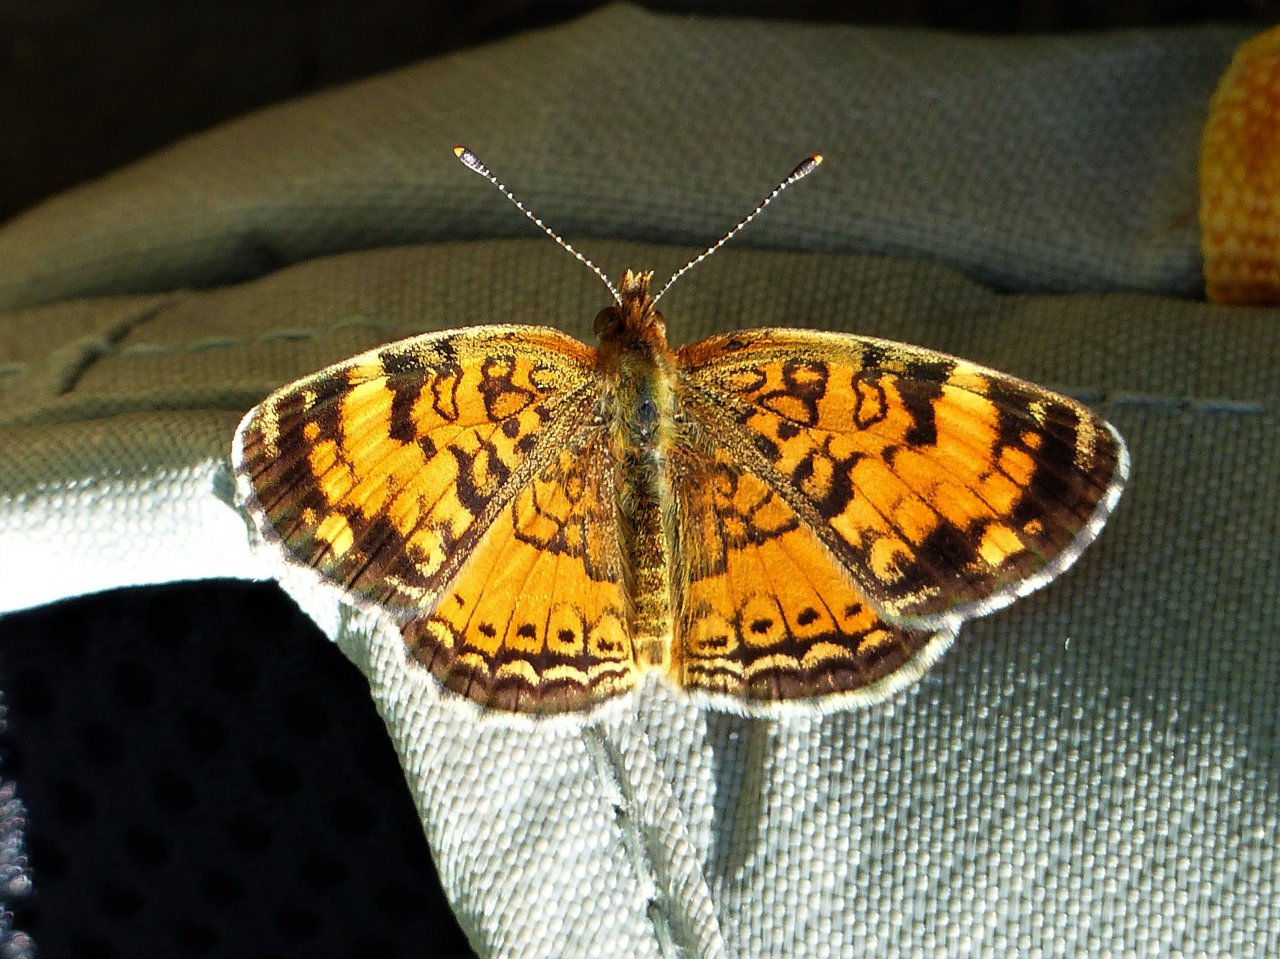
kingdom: Animalia
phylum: Arthropoda
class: Insecta
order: Lepidoptera
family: Nymphalidae
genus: Phyciodes
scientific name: Phyciodes tharos
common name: Northern Crescent
